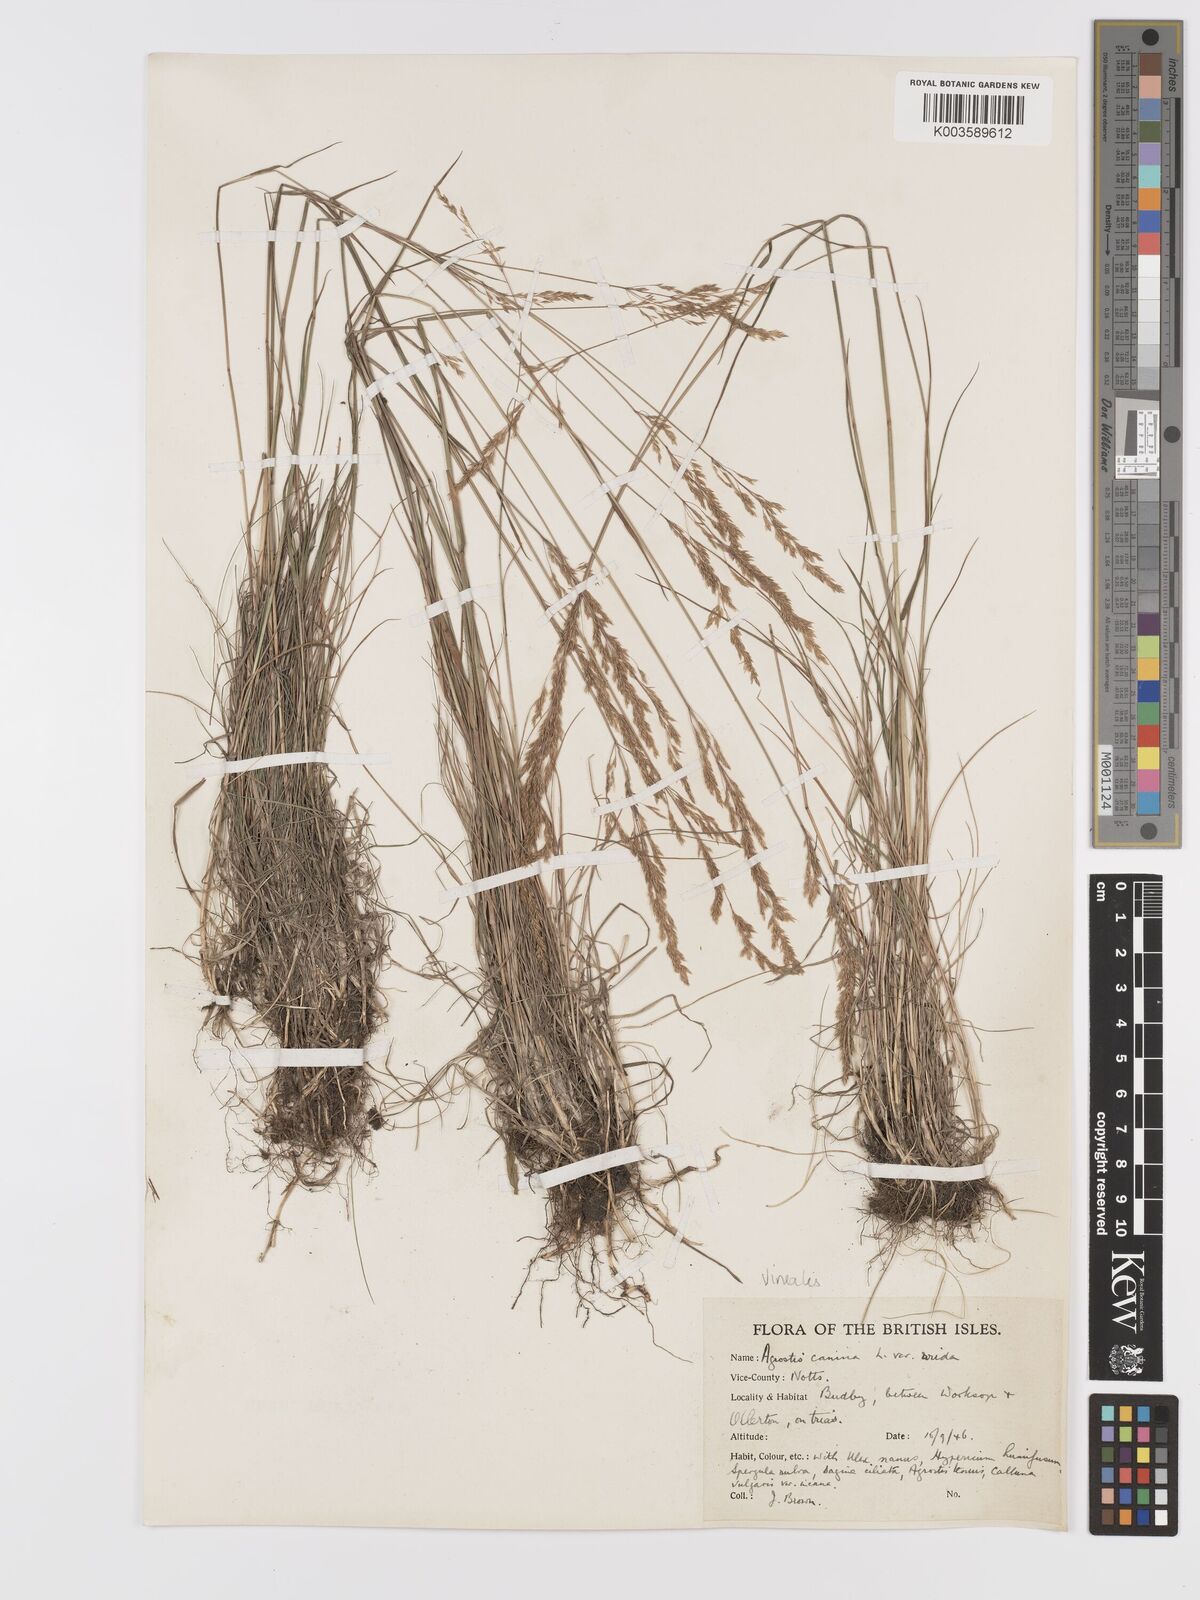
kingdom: Plantae
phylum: Tracheophyta
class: Liliopsida
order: Poales
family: Poaceae
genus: Agrostis
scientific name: Agrostis
